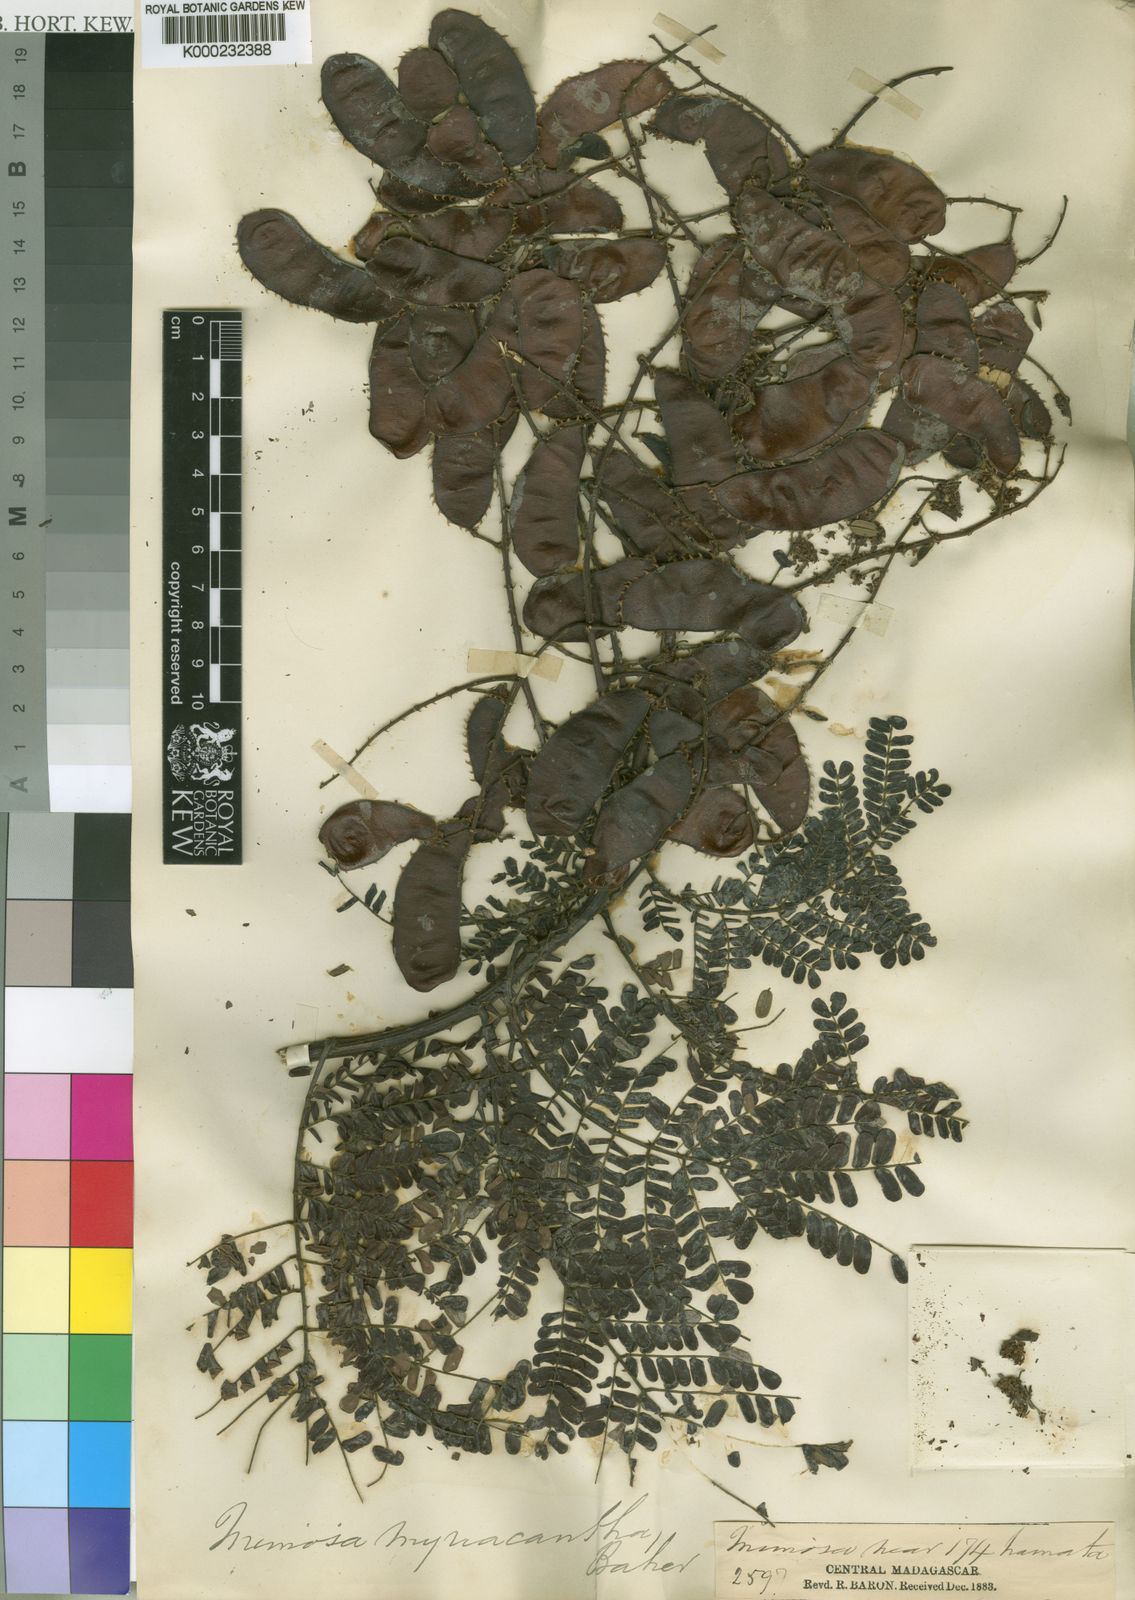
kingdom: Plantae
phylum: Tracheophyta
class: Magnoliopsida
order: Fabales
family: Fabaceae
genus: Mimosa
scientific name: Mimosa
